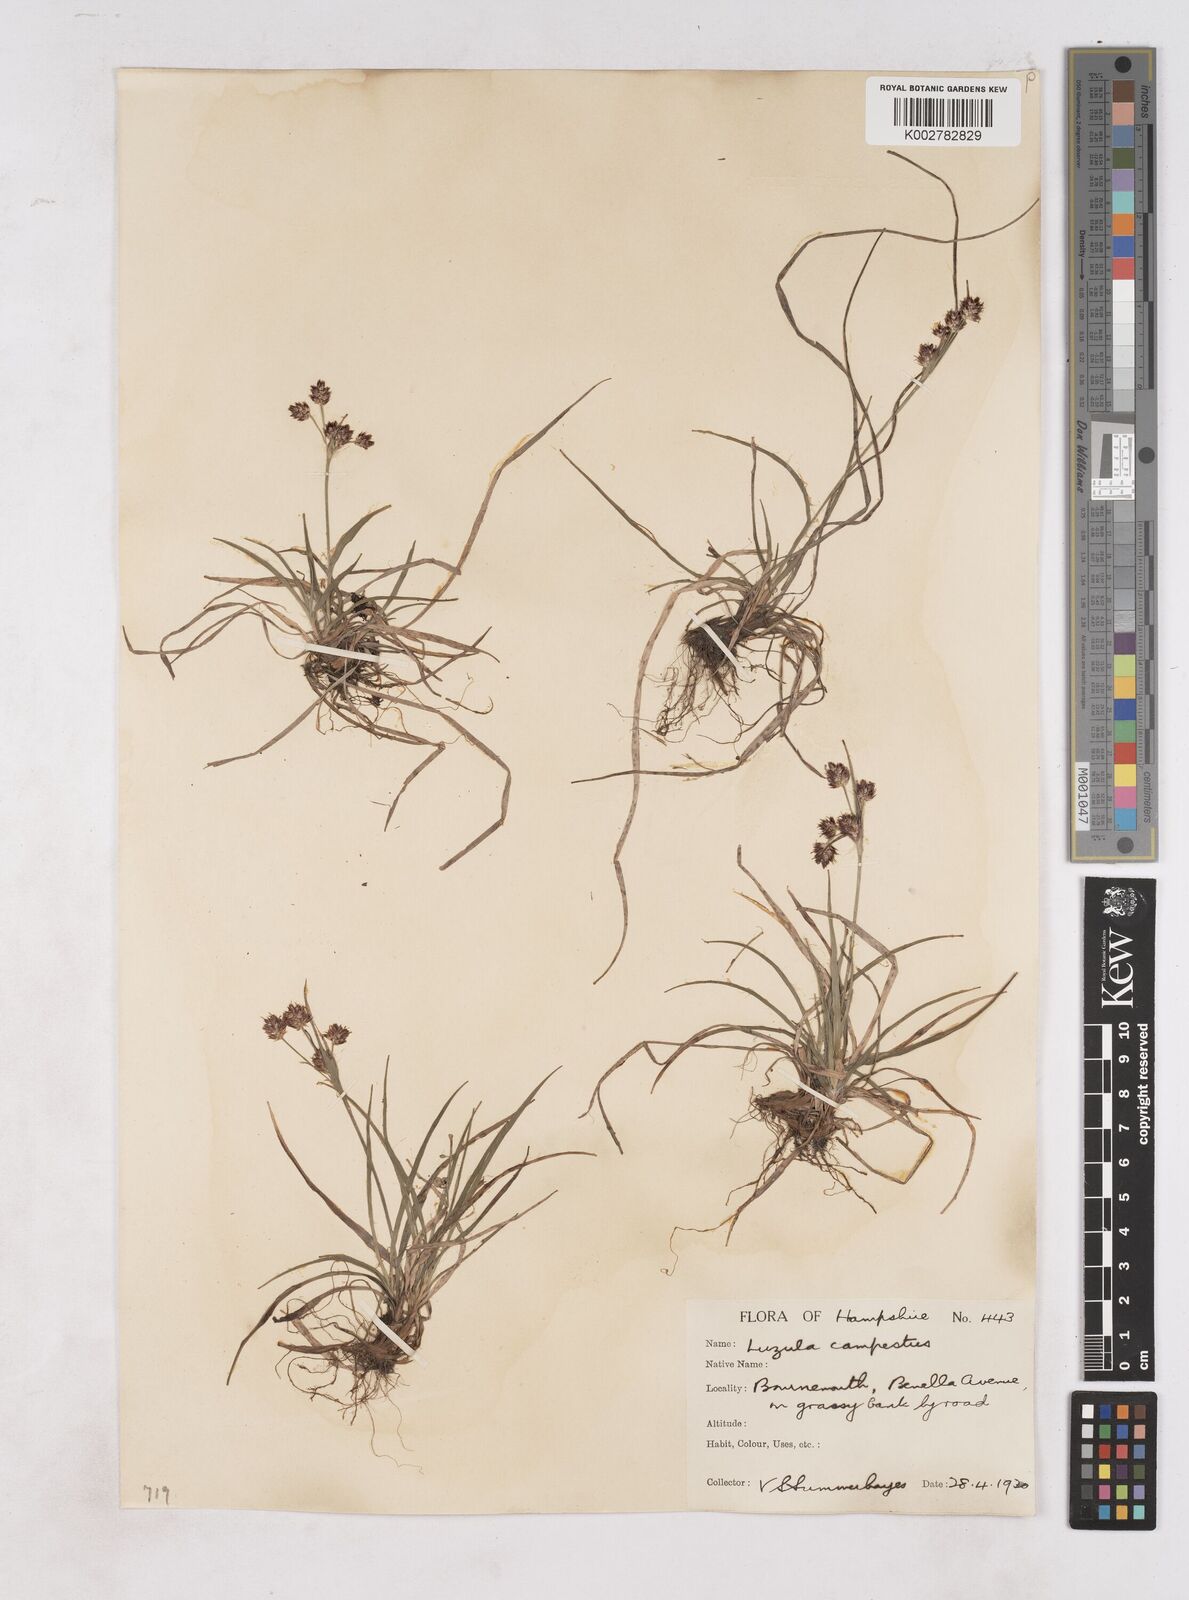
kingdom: Plantae
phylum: Tracheophyta
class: Liliopsida
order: Poales
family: Juncaceae
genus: Luzula
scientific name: Luzula campestris
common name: Field wood-rush
